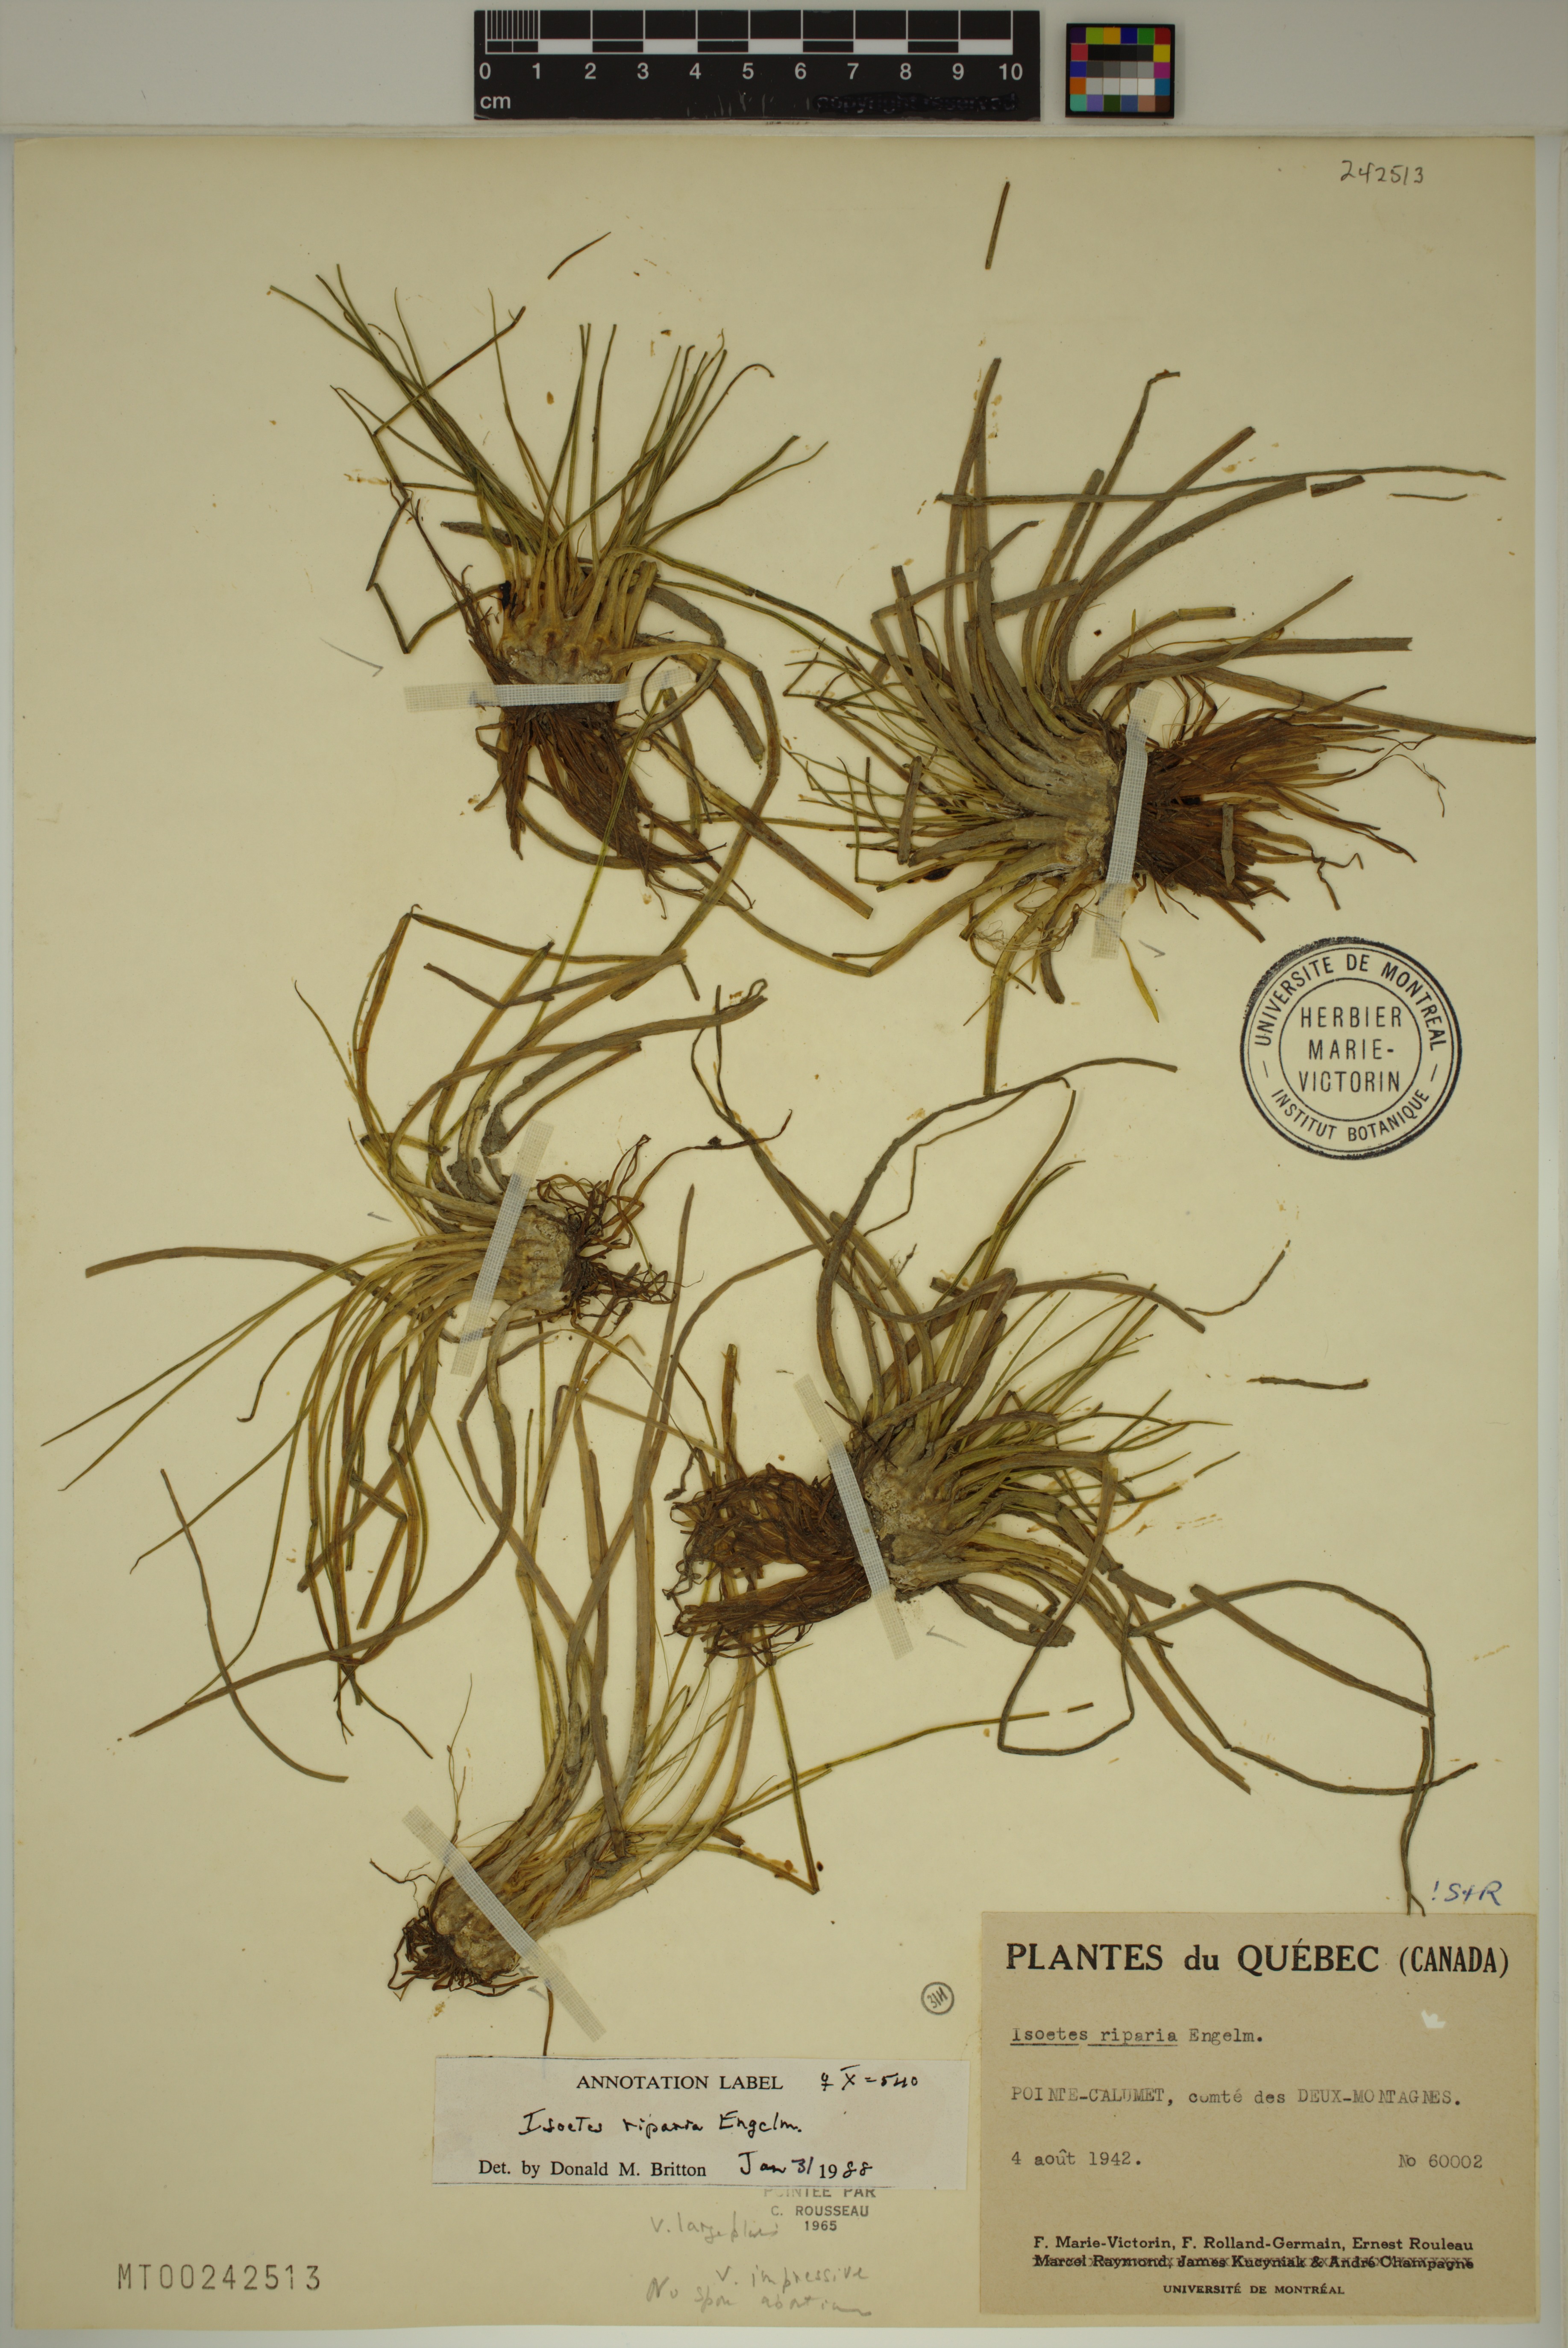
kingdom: Plantae
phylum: Tracheophyta
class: Lycopodiopsida
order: Isoetales
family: Isoetaceae
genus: Isoetes
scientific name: Isoetes septentrionalis
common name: Northern quillwort
